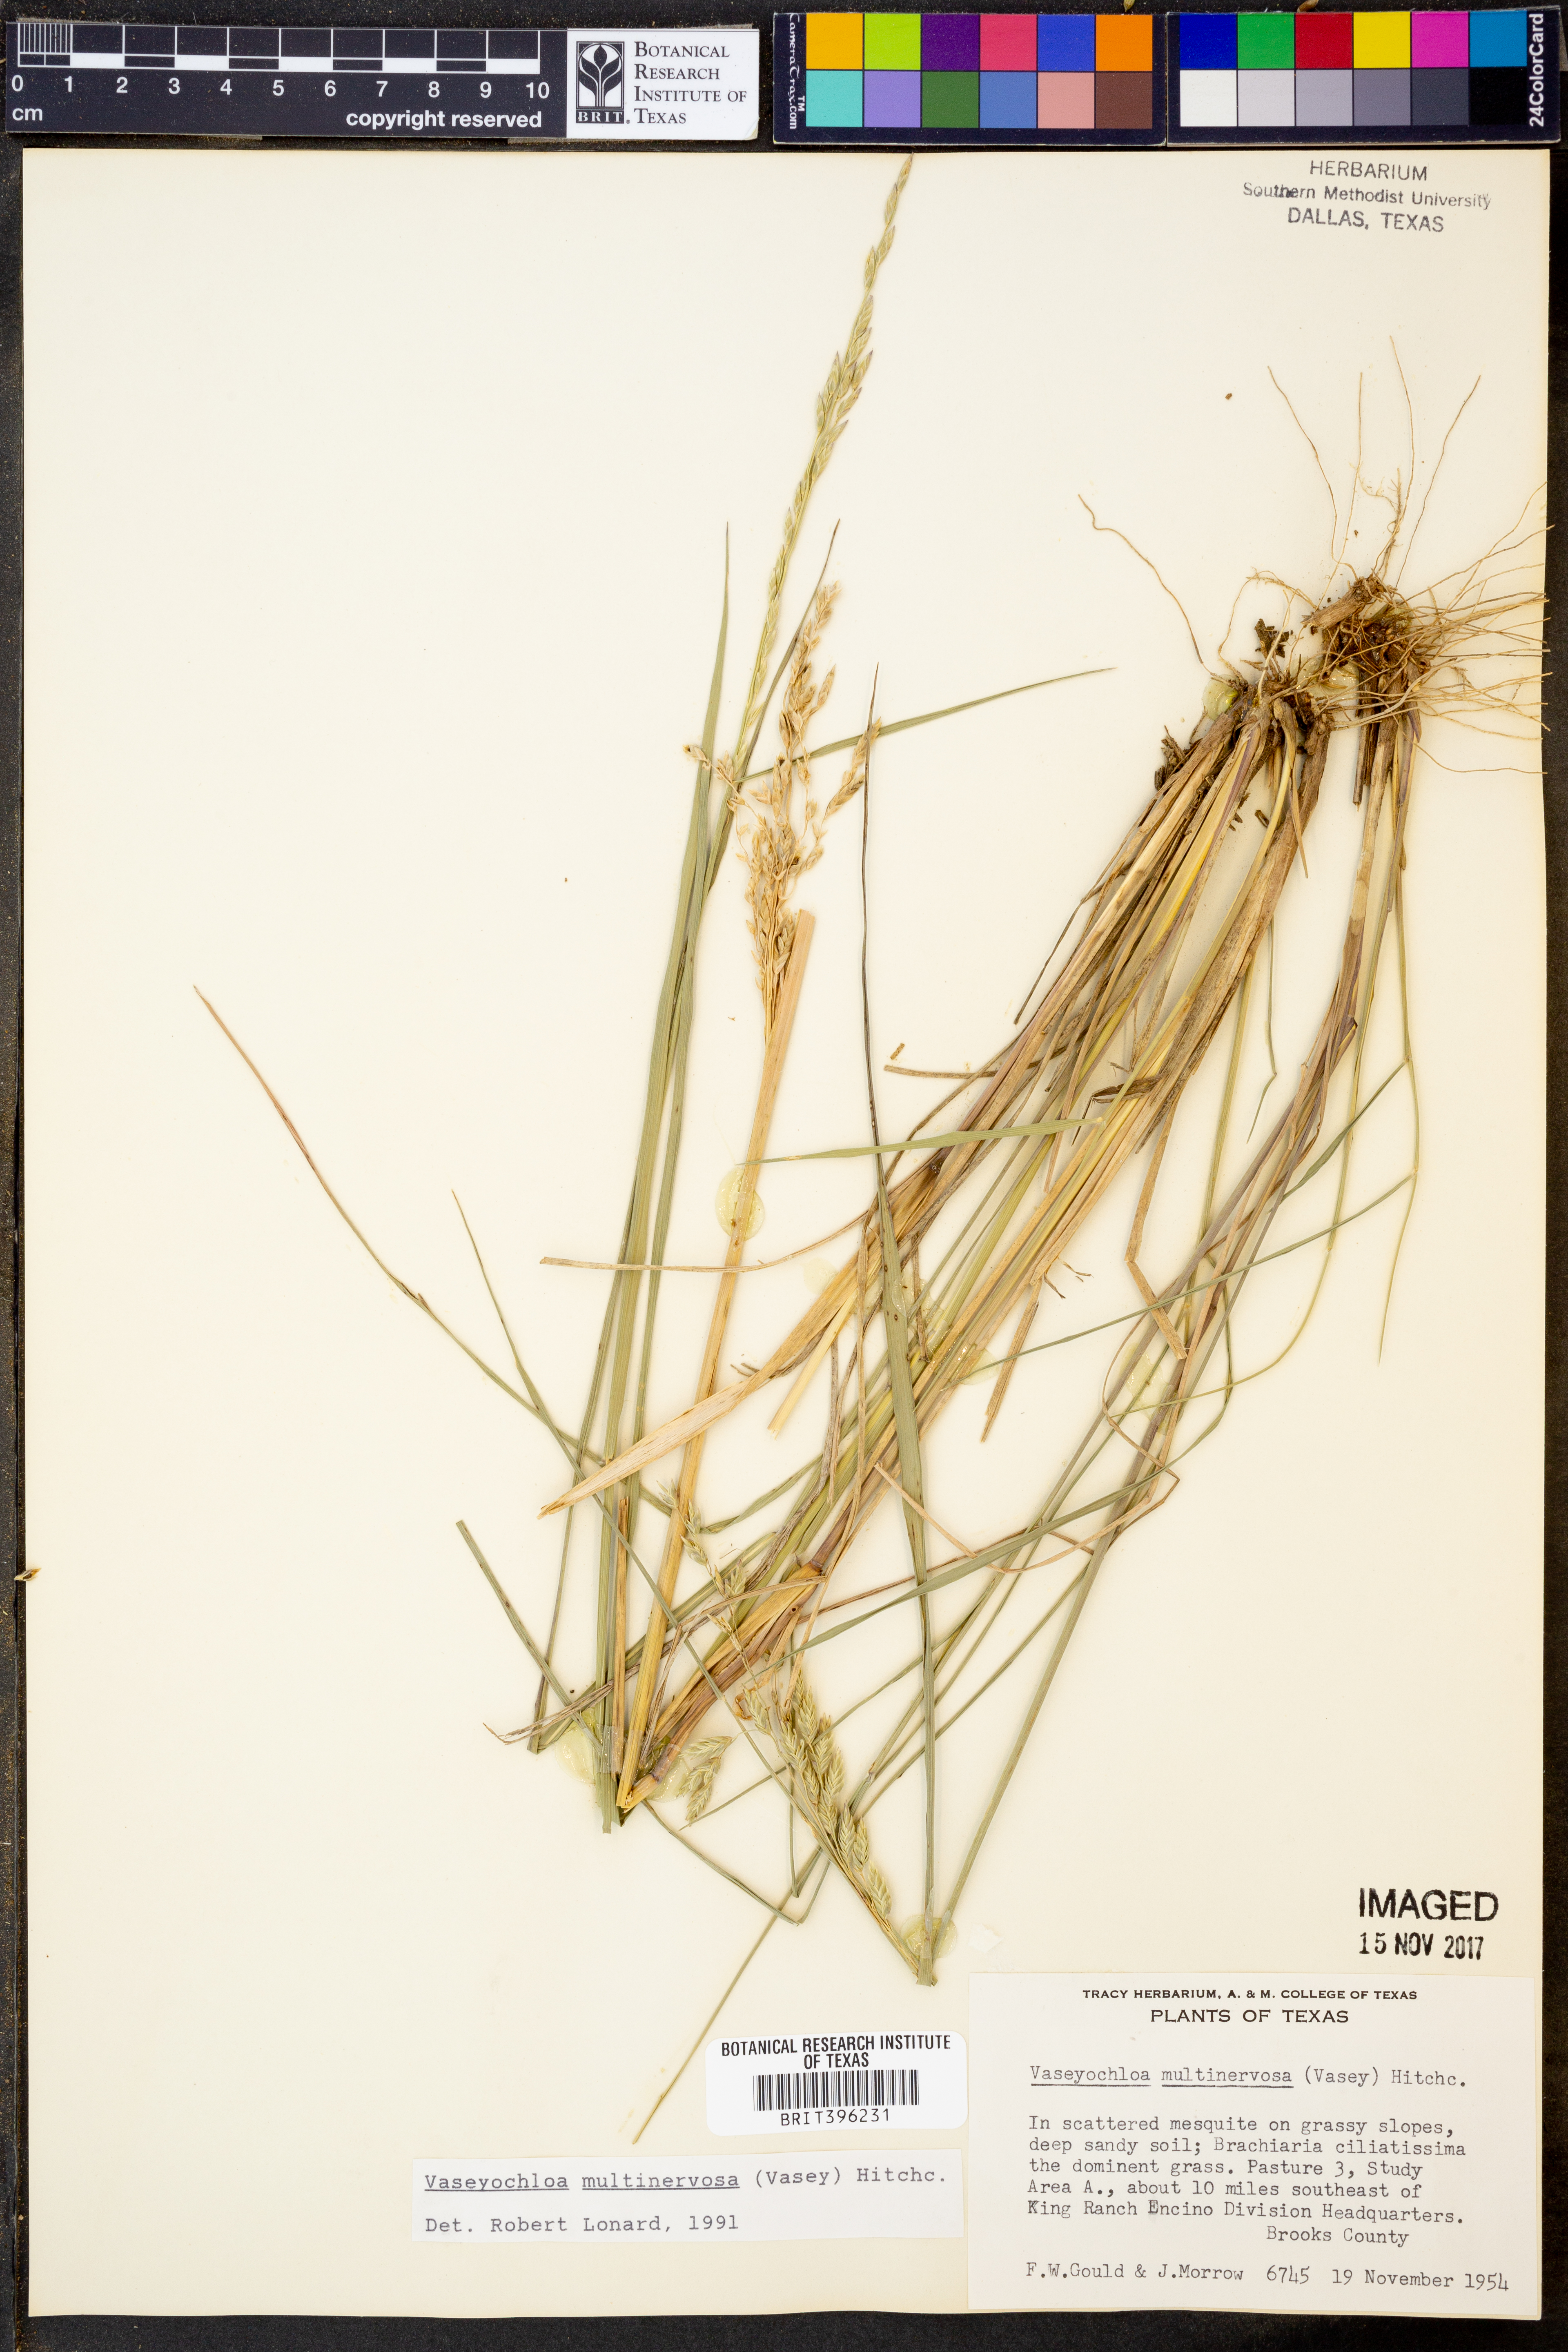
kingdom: Plantae
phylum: Tracheophyta
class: Liliopsida
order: Poales
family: Poaceae
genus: Vaseyochloa
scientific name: Vaseyochloa multinervosa
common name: Texas grass
